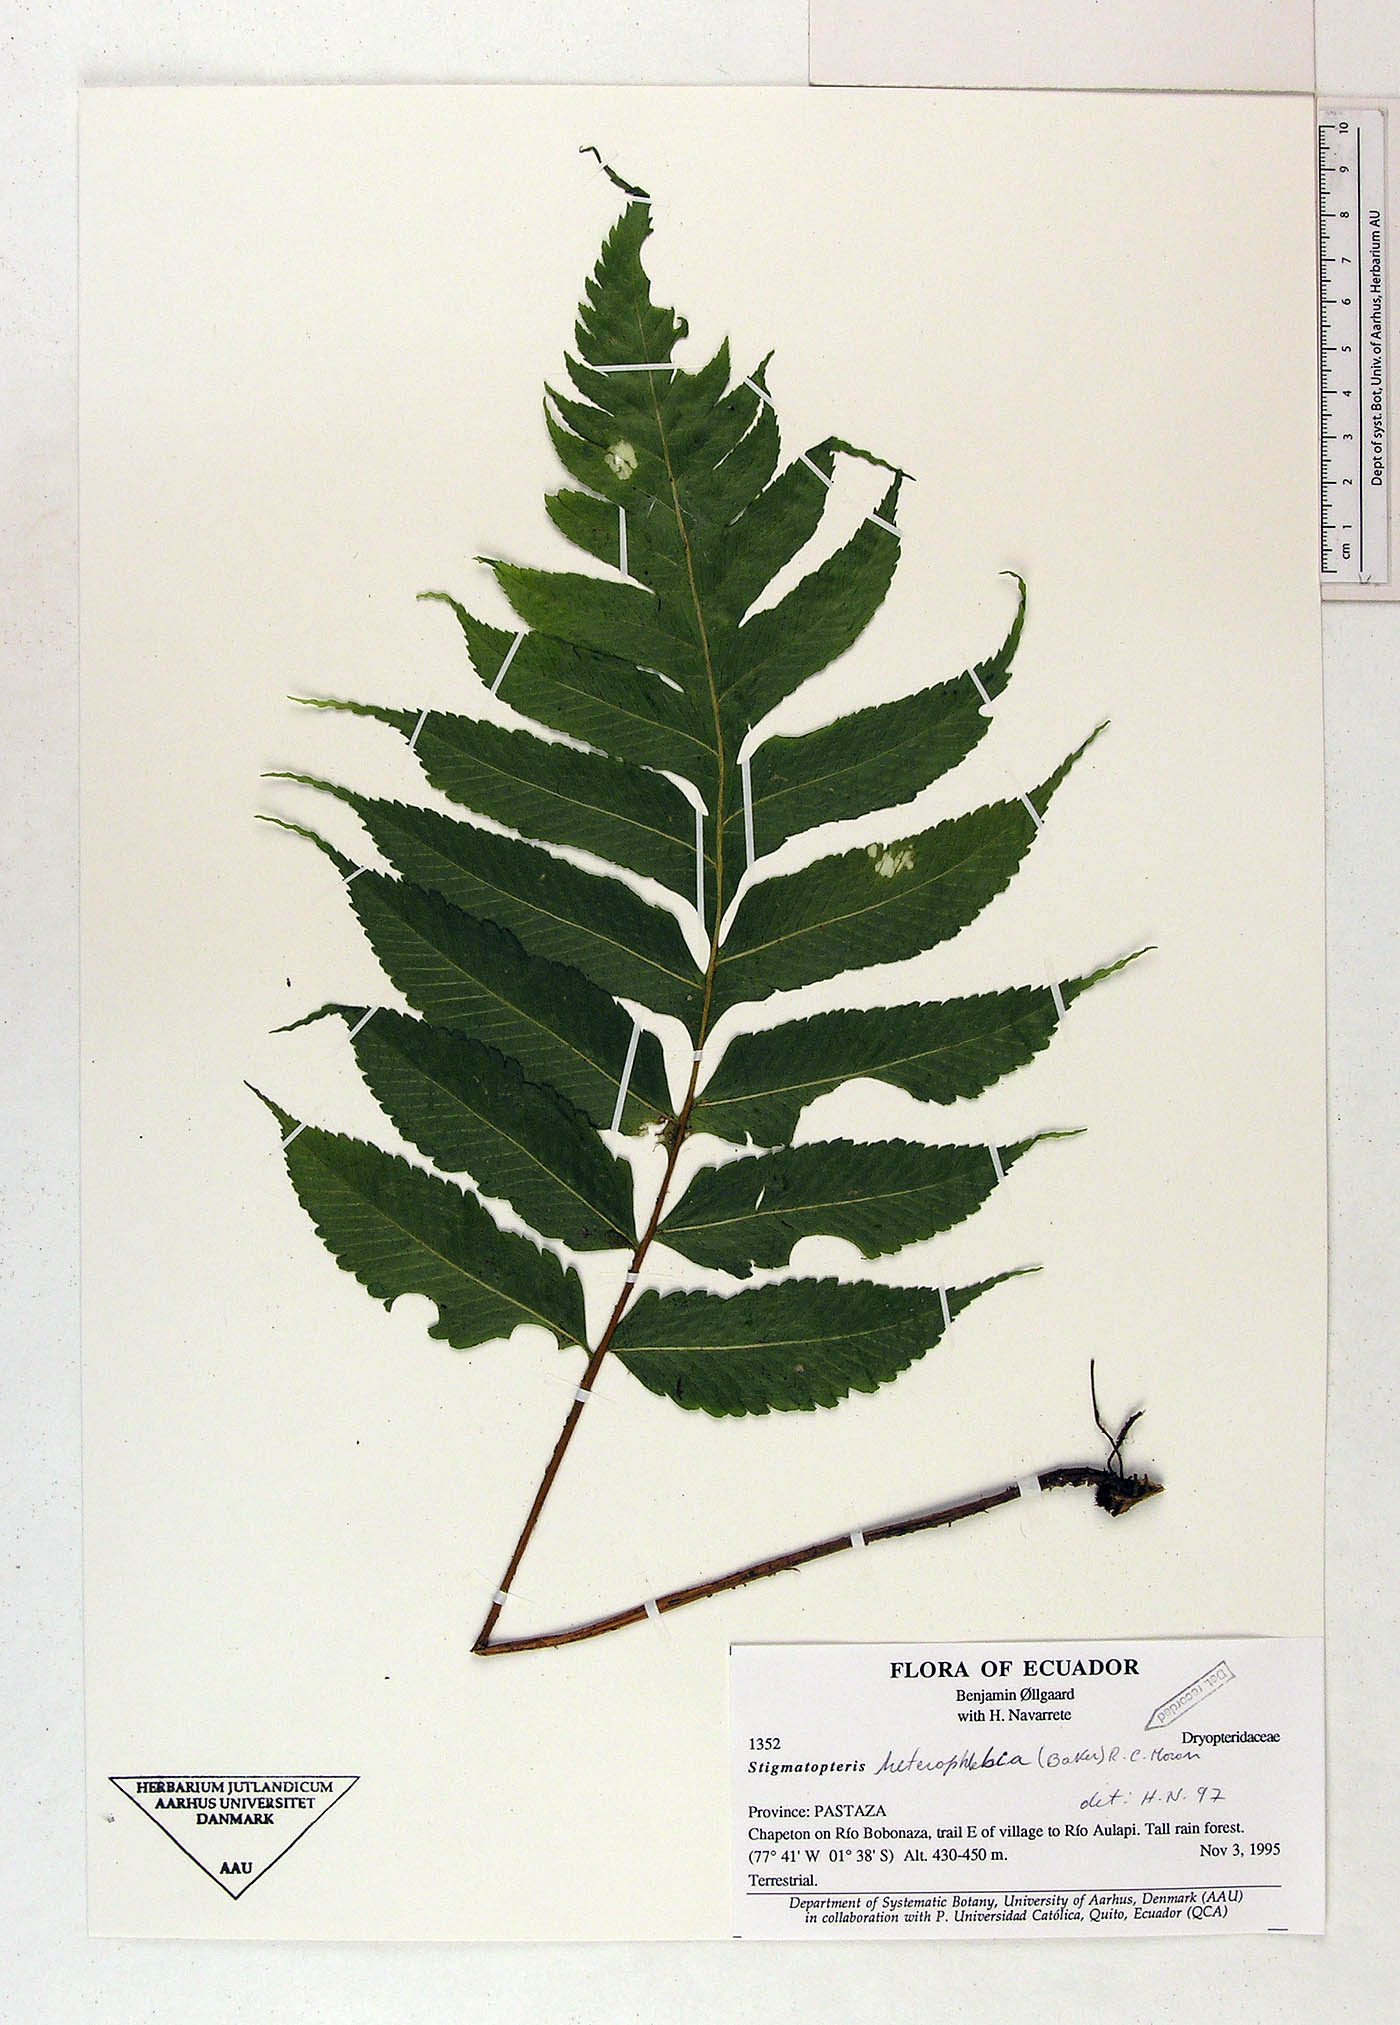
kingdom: Plantae
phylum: Tracheophyta
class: Polypodiopsida
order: Polypodiales
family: Dryopteridaceae
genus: Stigmatopteris
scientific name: Stigmatopteris heterophlebia
